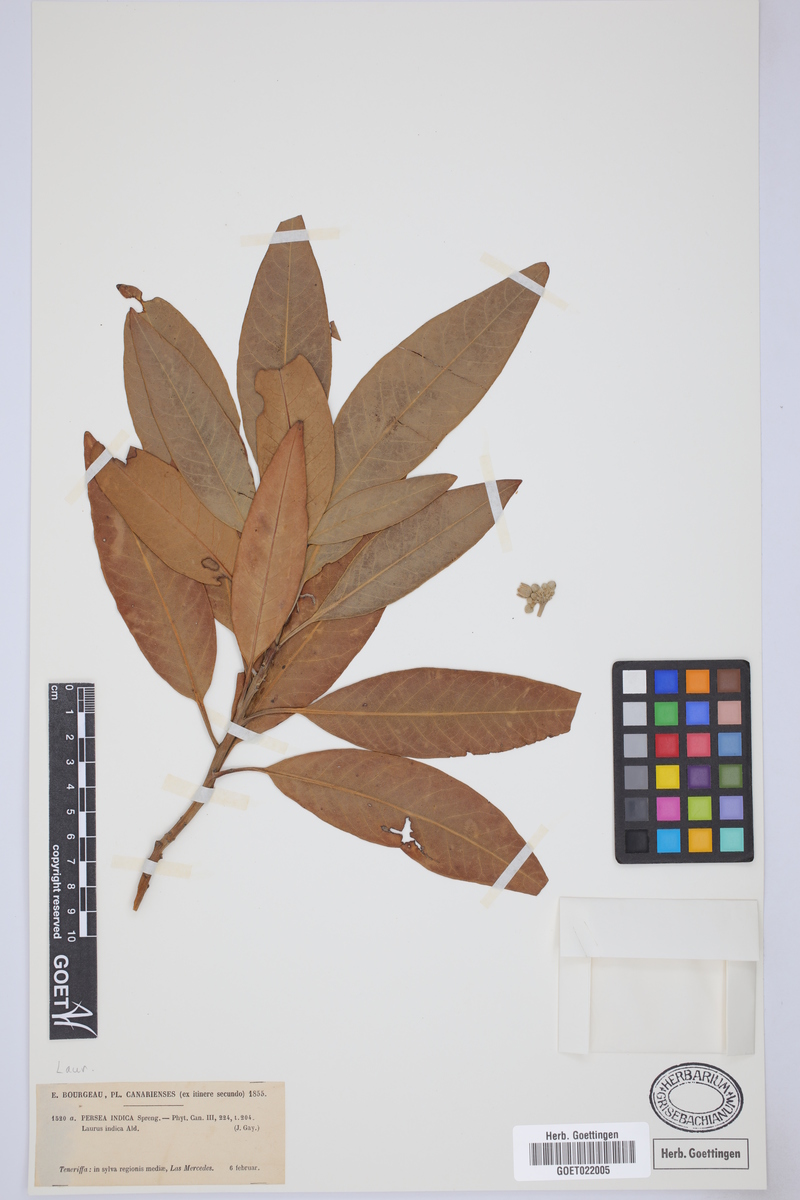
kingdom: Plantae
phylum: Tracheophyta
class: Magnoliopsida
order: Laurales
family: Lauraceae
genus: Persea
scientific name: Persea indica
